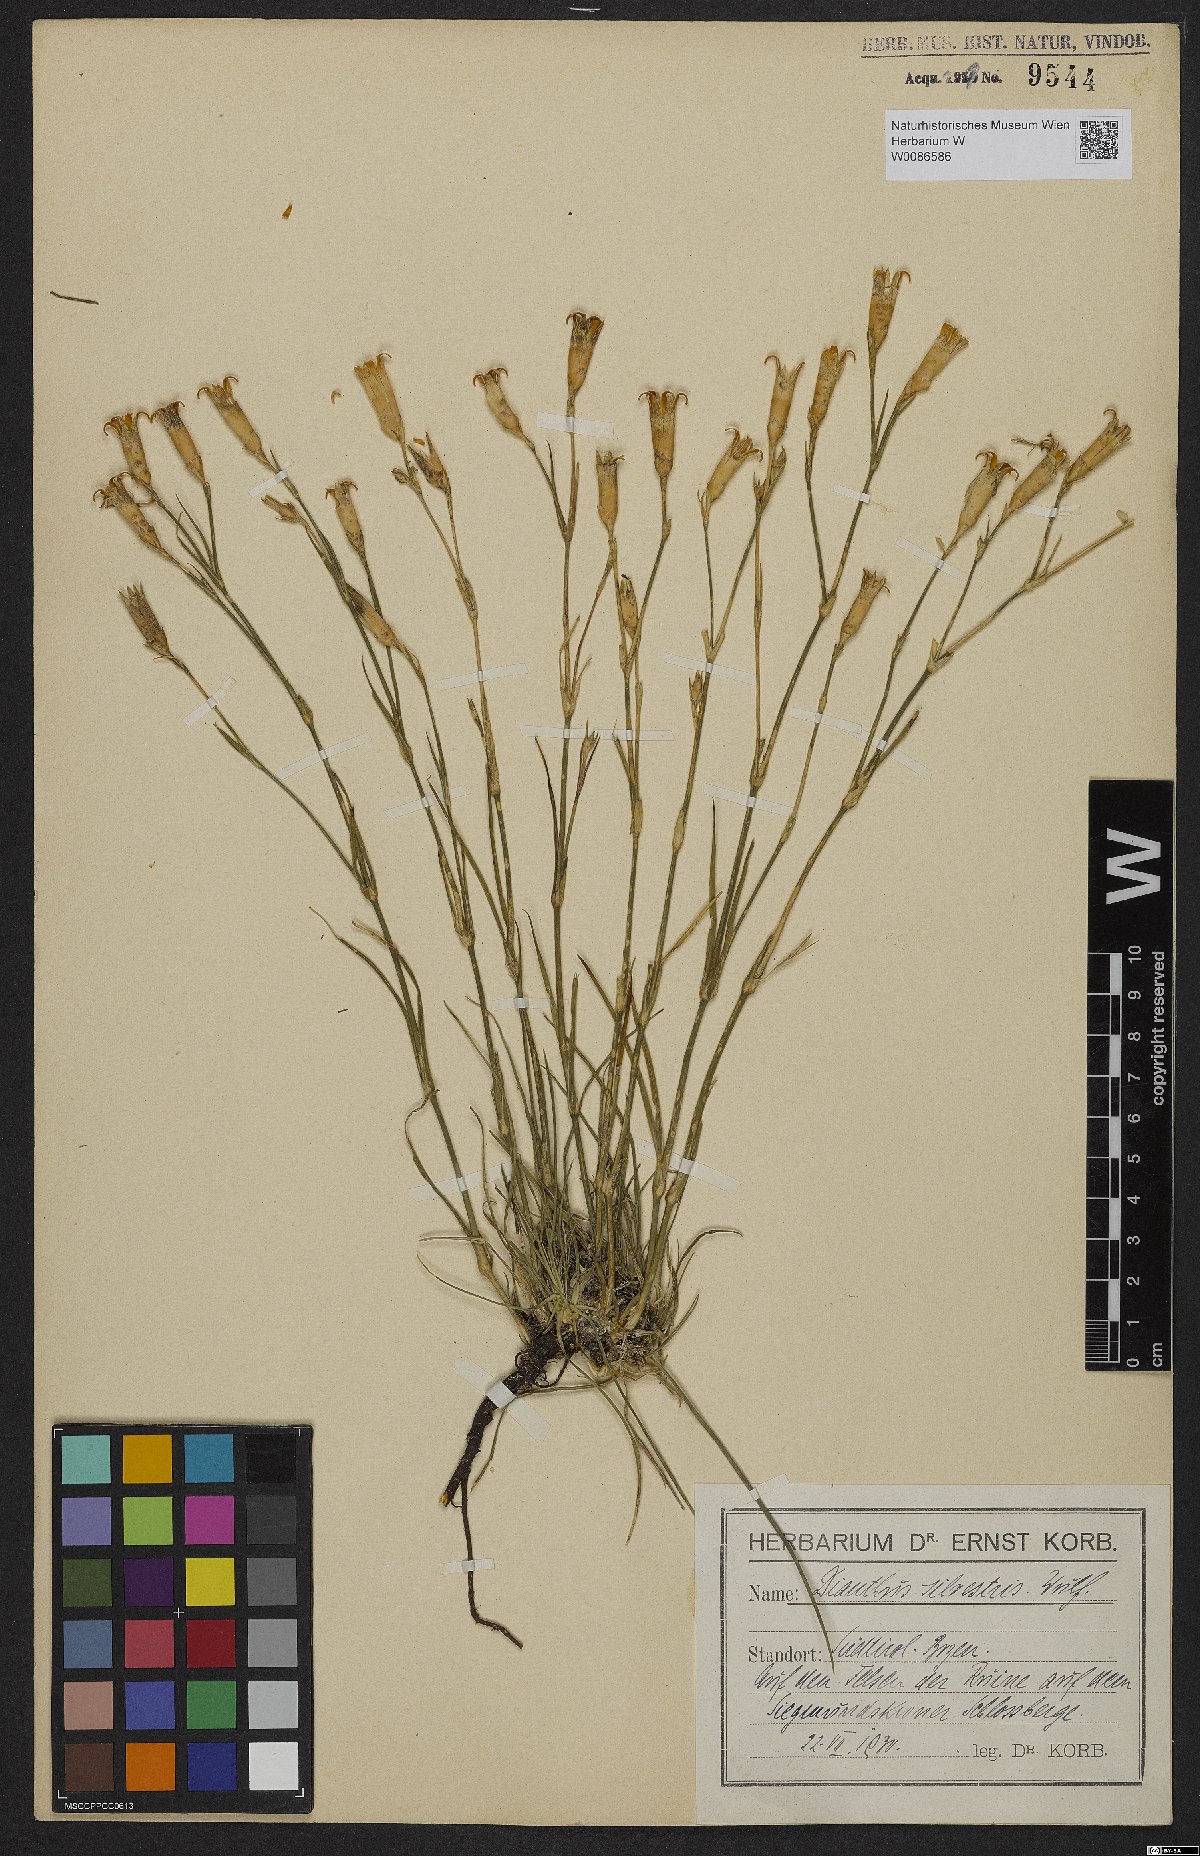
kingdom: Plantae
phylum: Tracheophyta
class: Magnoliopsida
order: Caryophyllales
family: Caryophyllaceae
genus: Dianthus
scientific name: Dianthus sylvestris
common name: Wood pink
